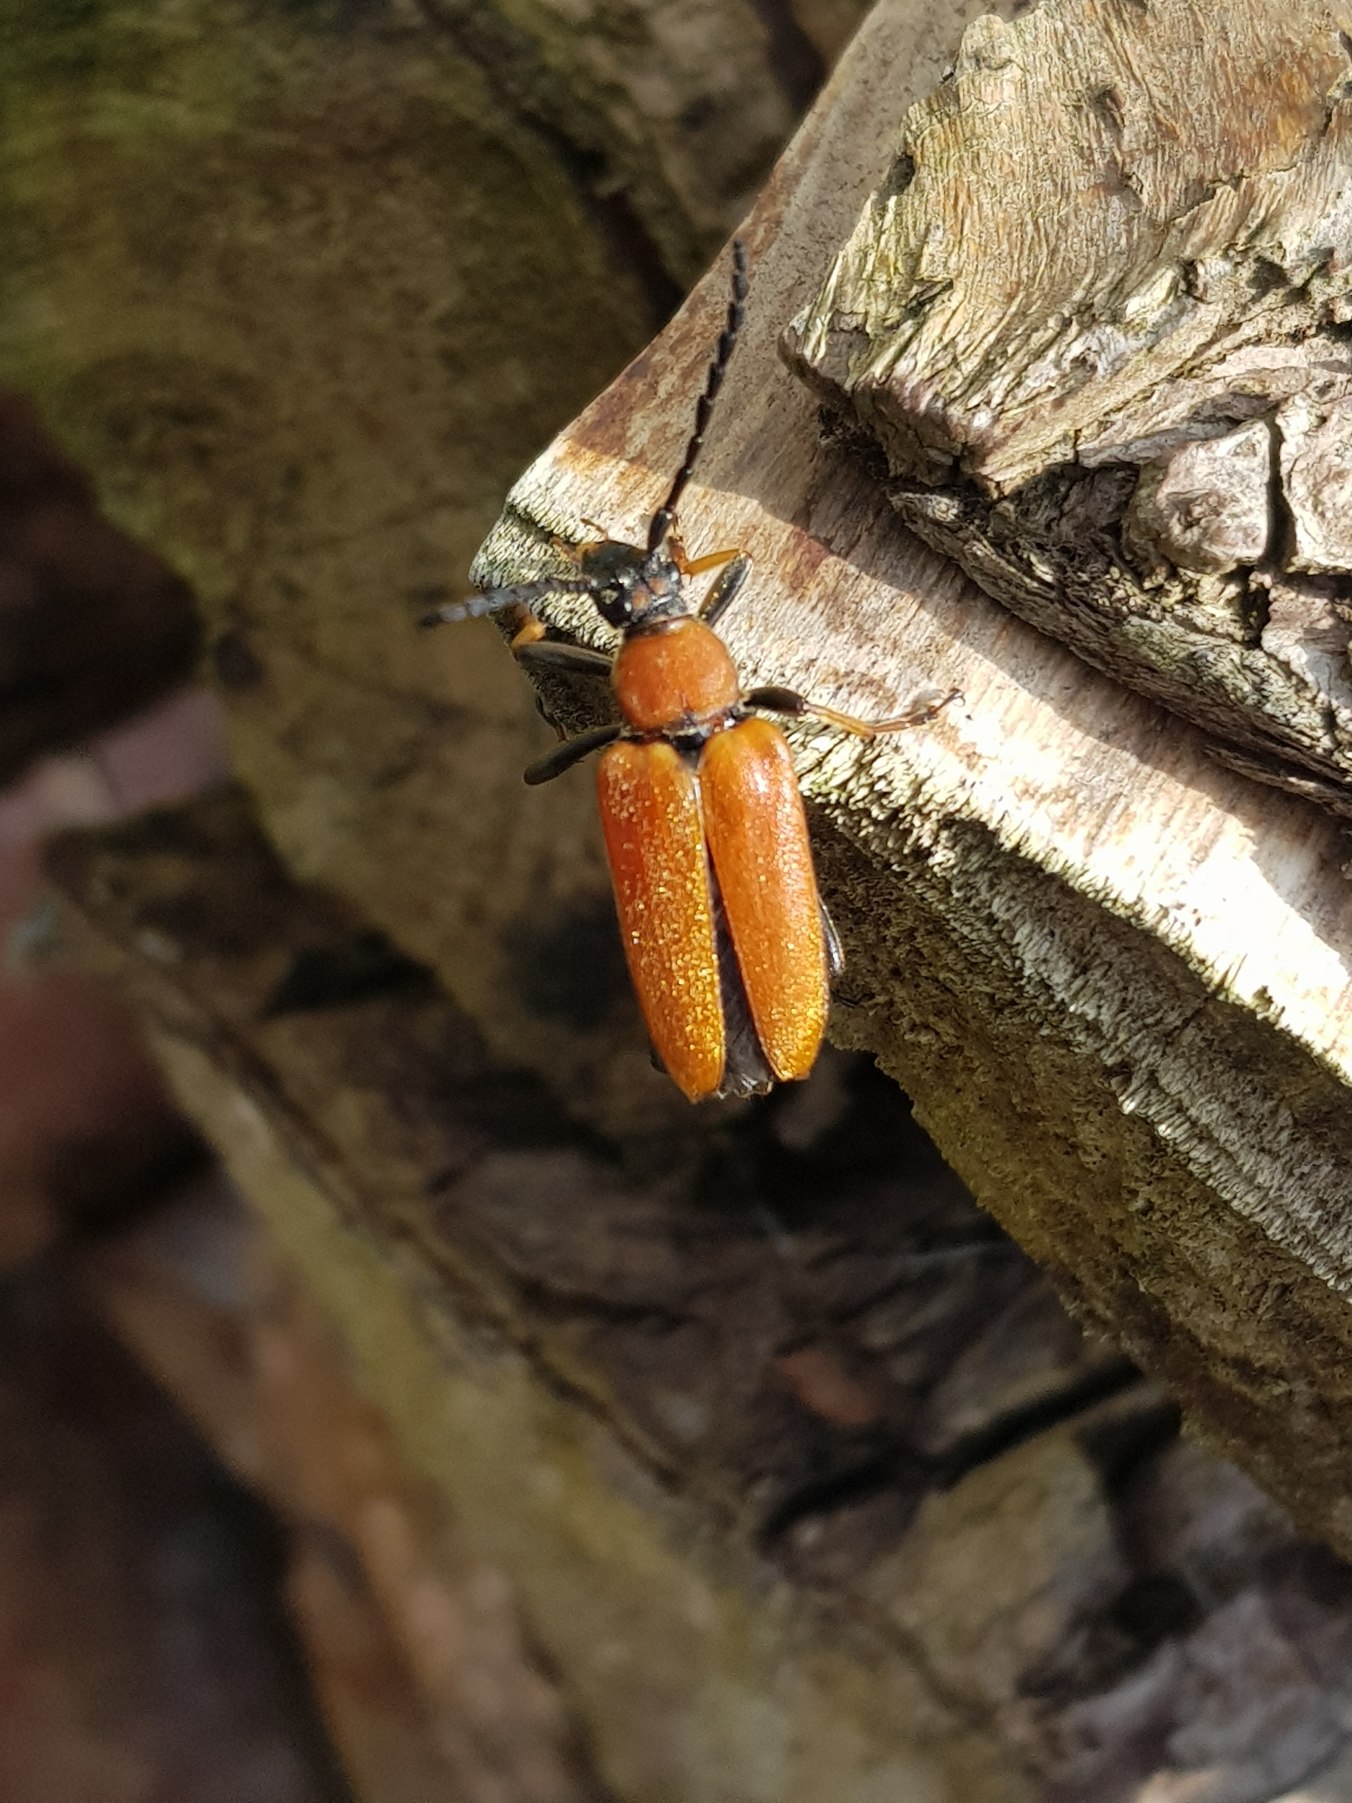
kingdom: Animalia
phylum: Arthropoda
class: Insecta
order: Coleoptera
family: Cerambycidae
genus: Stictoleptura
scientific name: Stictoleptura rubra
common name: Rød blomsterbuk
